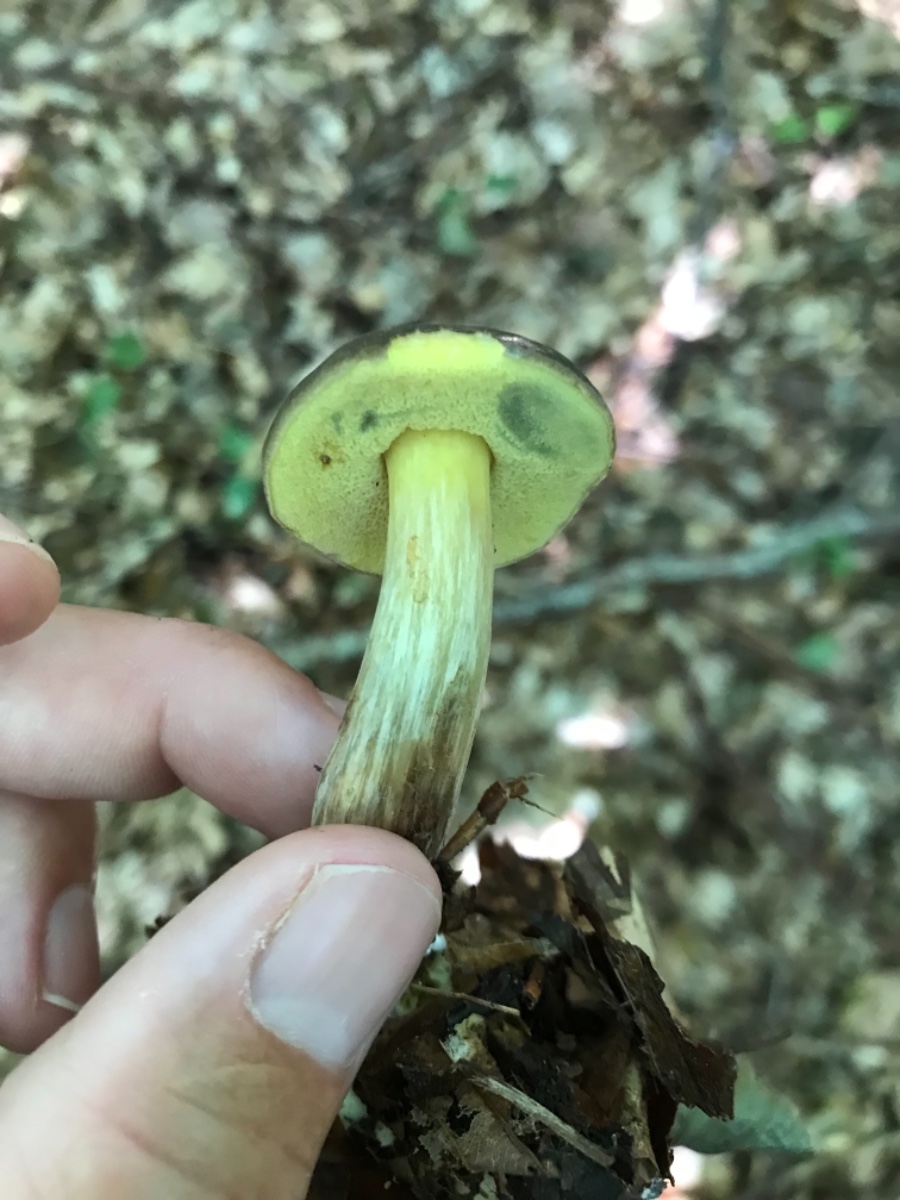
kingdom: Fungi
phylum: Basidiomycota
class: Agaricomycetes
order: Boletales
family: Boletaceae
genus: Xerocomellus
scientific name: Xerocomellus porosporus
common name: hvidsprukken rørhat
